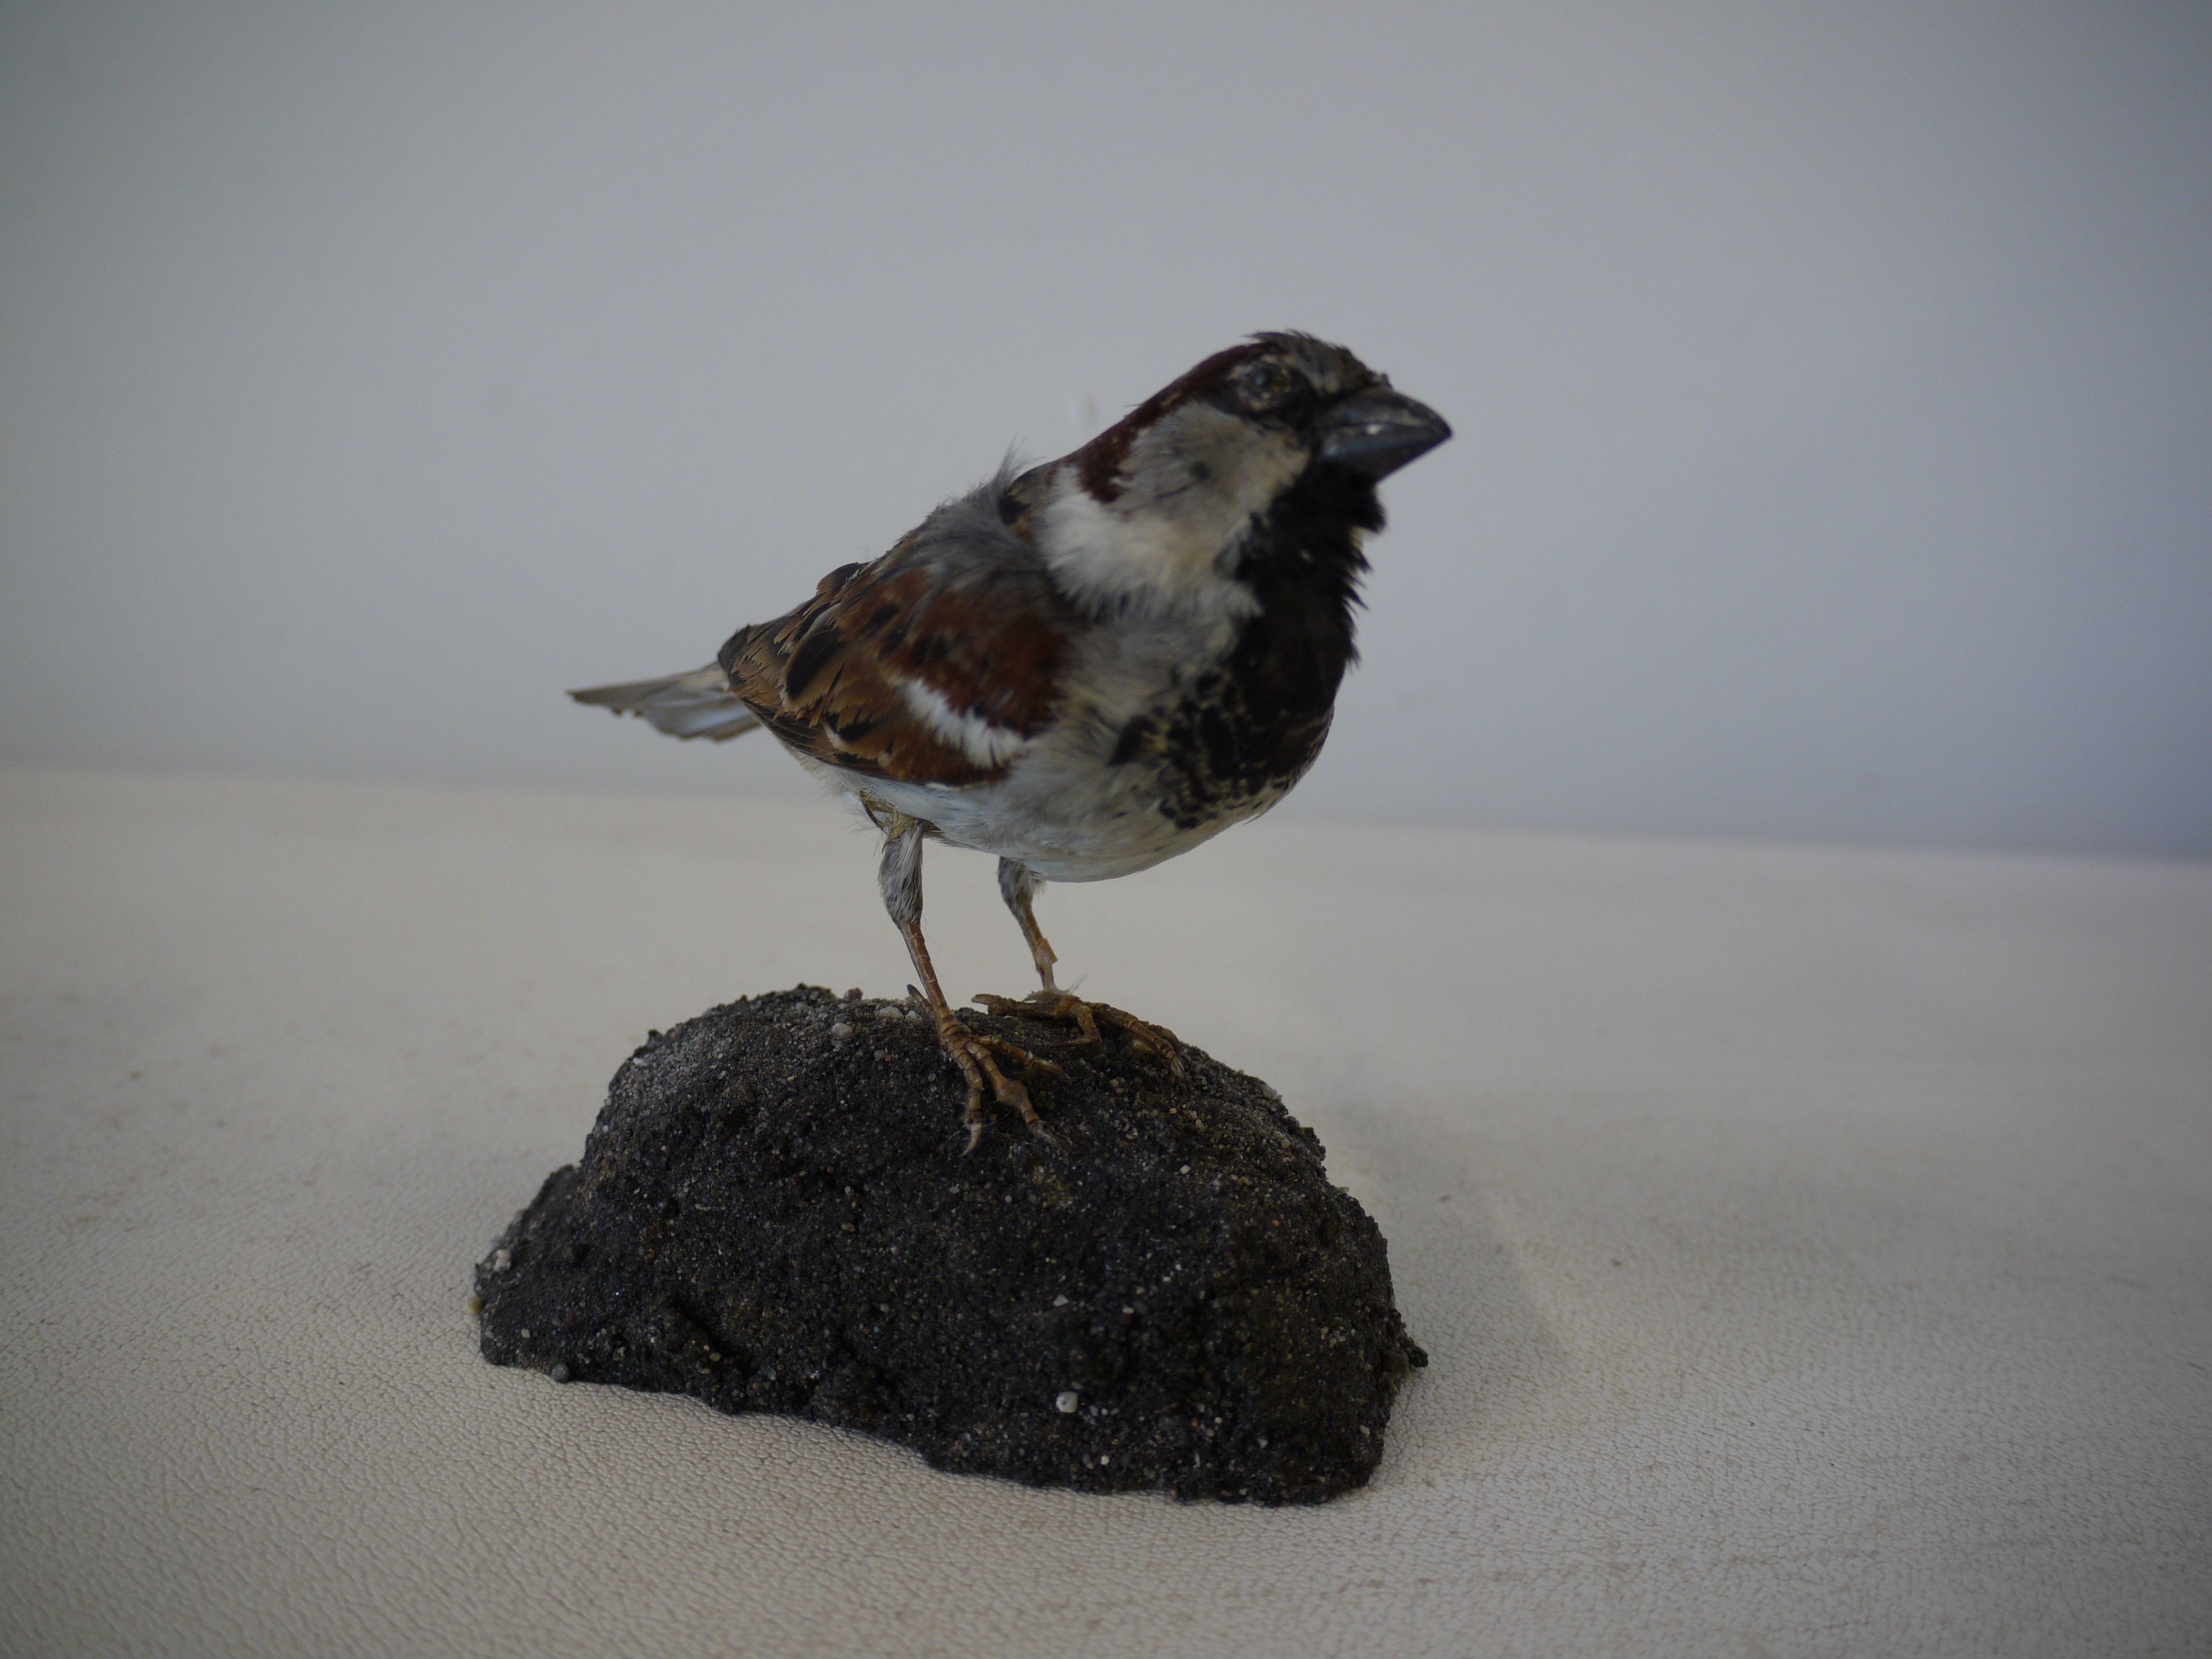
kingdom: Animalia
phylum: Chordata
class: Aves
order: Passeriformes
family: Passeridae
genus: Passer
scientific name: Passer domesticus
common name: House sparrow
